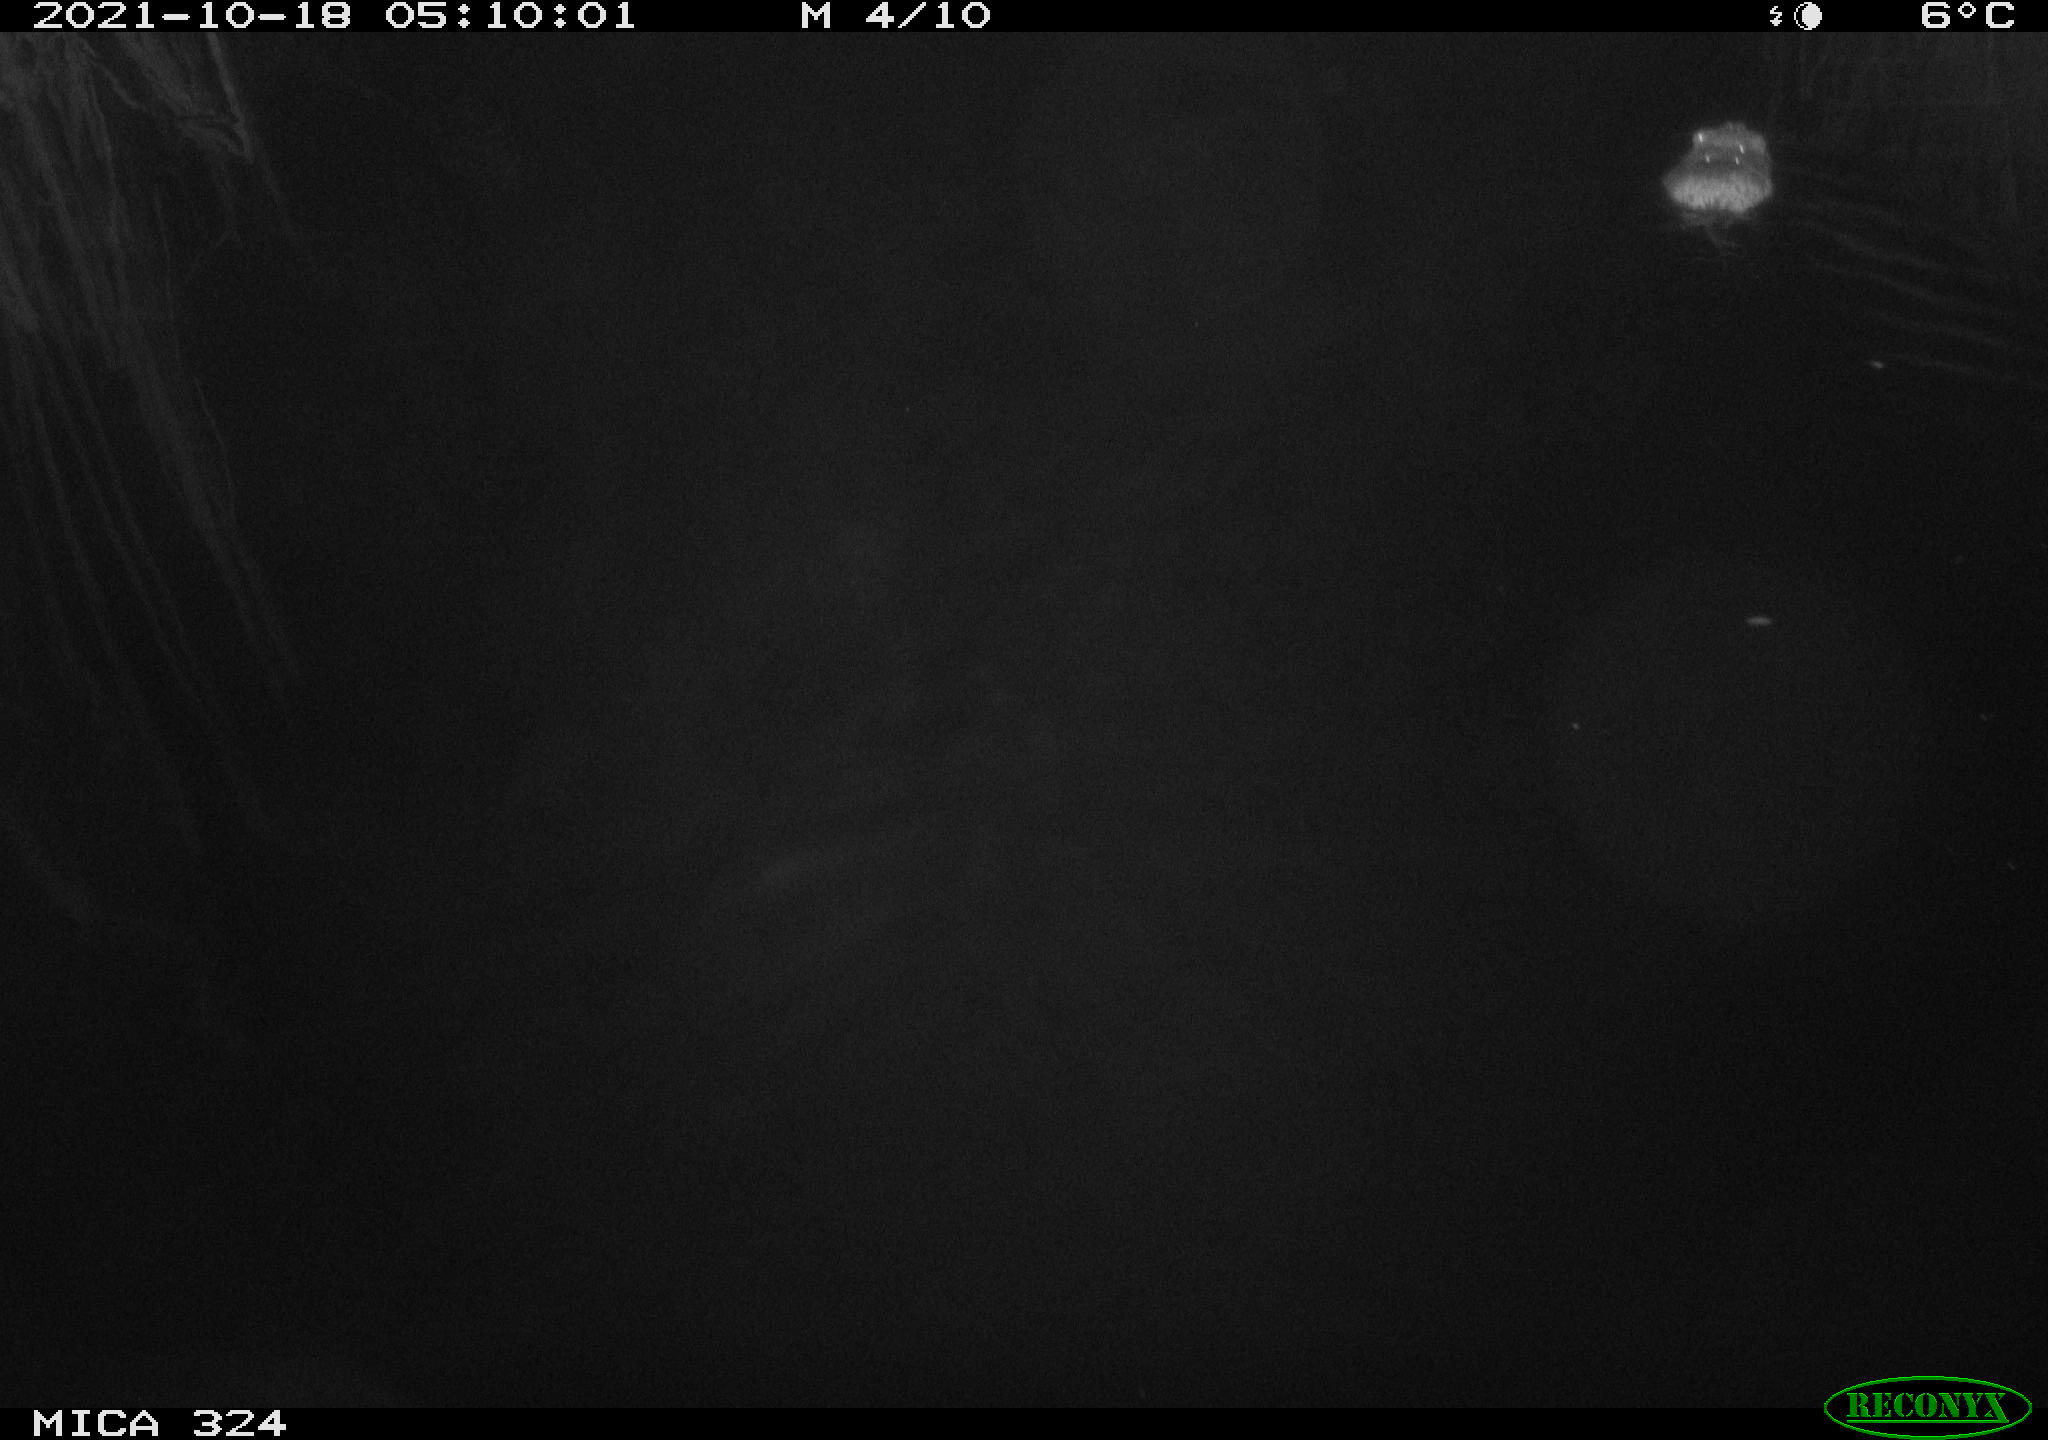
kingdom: Animalia
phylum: Chordata
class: Mammalia
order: Rodentia
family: Cricetidae
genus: Ondatra
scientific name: Ondatra zibethicus
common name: Muskrat
